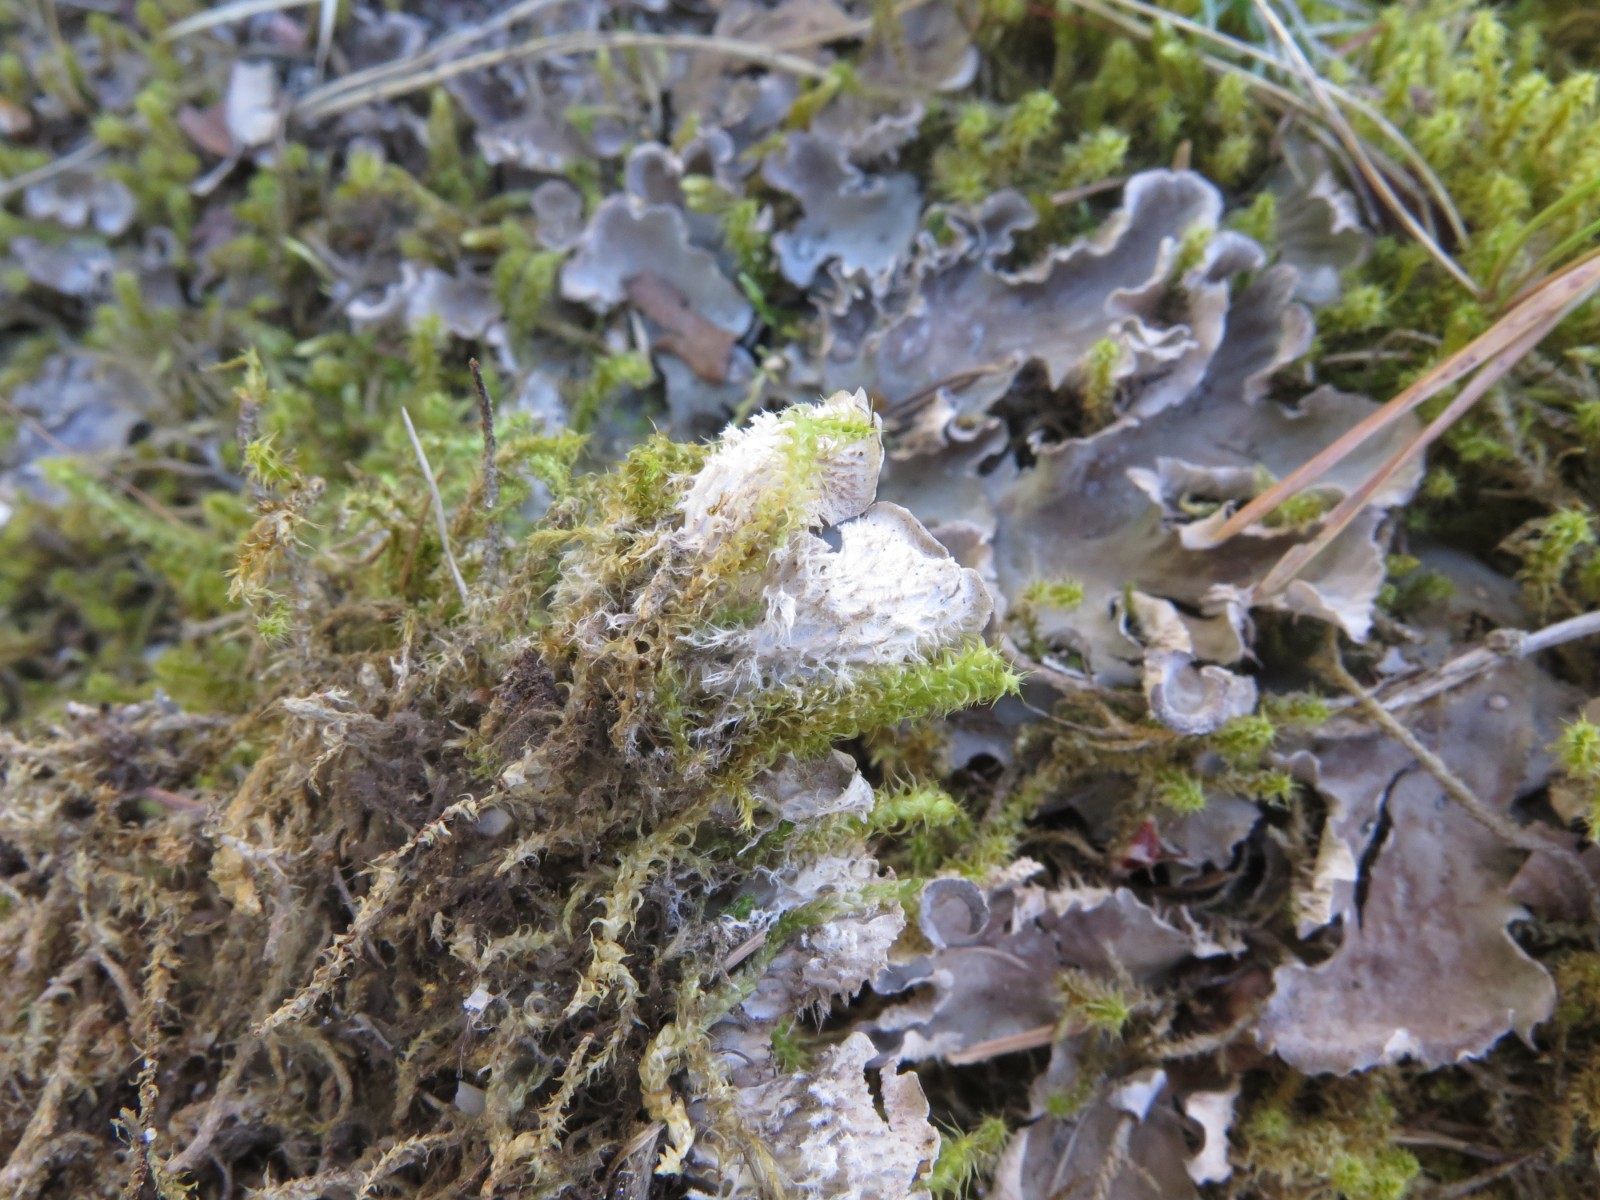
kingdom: Fungi
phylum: Ascomycota
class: Lecanoromycetes
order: Peltigerales
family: Peltigeraceae
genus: Peltigera
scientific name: Peltigera membranacea
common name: tynd skjoldlav
